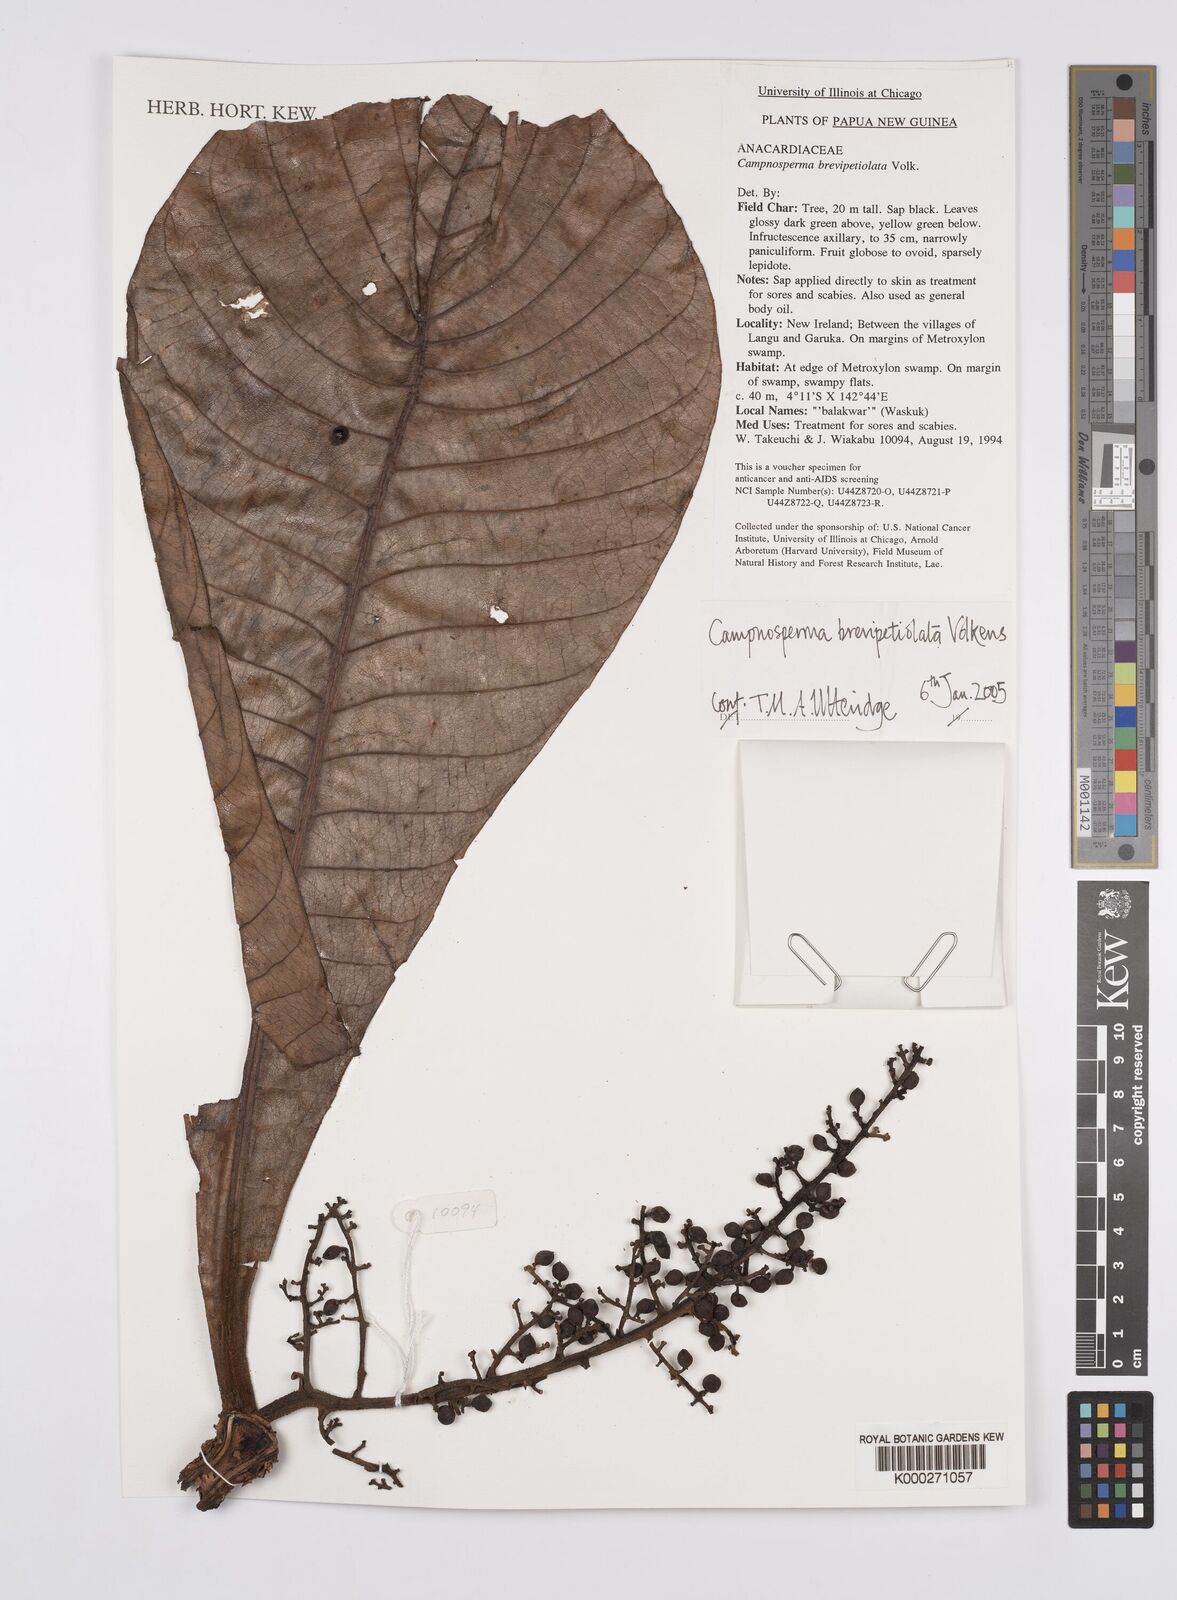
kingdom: Plantae
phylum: Tracheophyta
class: Magnoliopsida
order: Sapindales
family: Anacardiaceae
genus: Campnosperma
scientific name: Campnosperma brevipetiolatum
